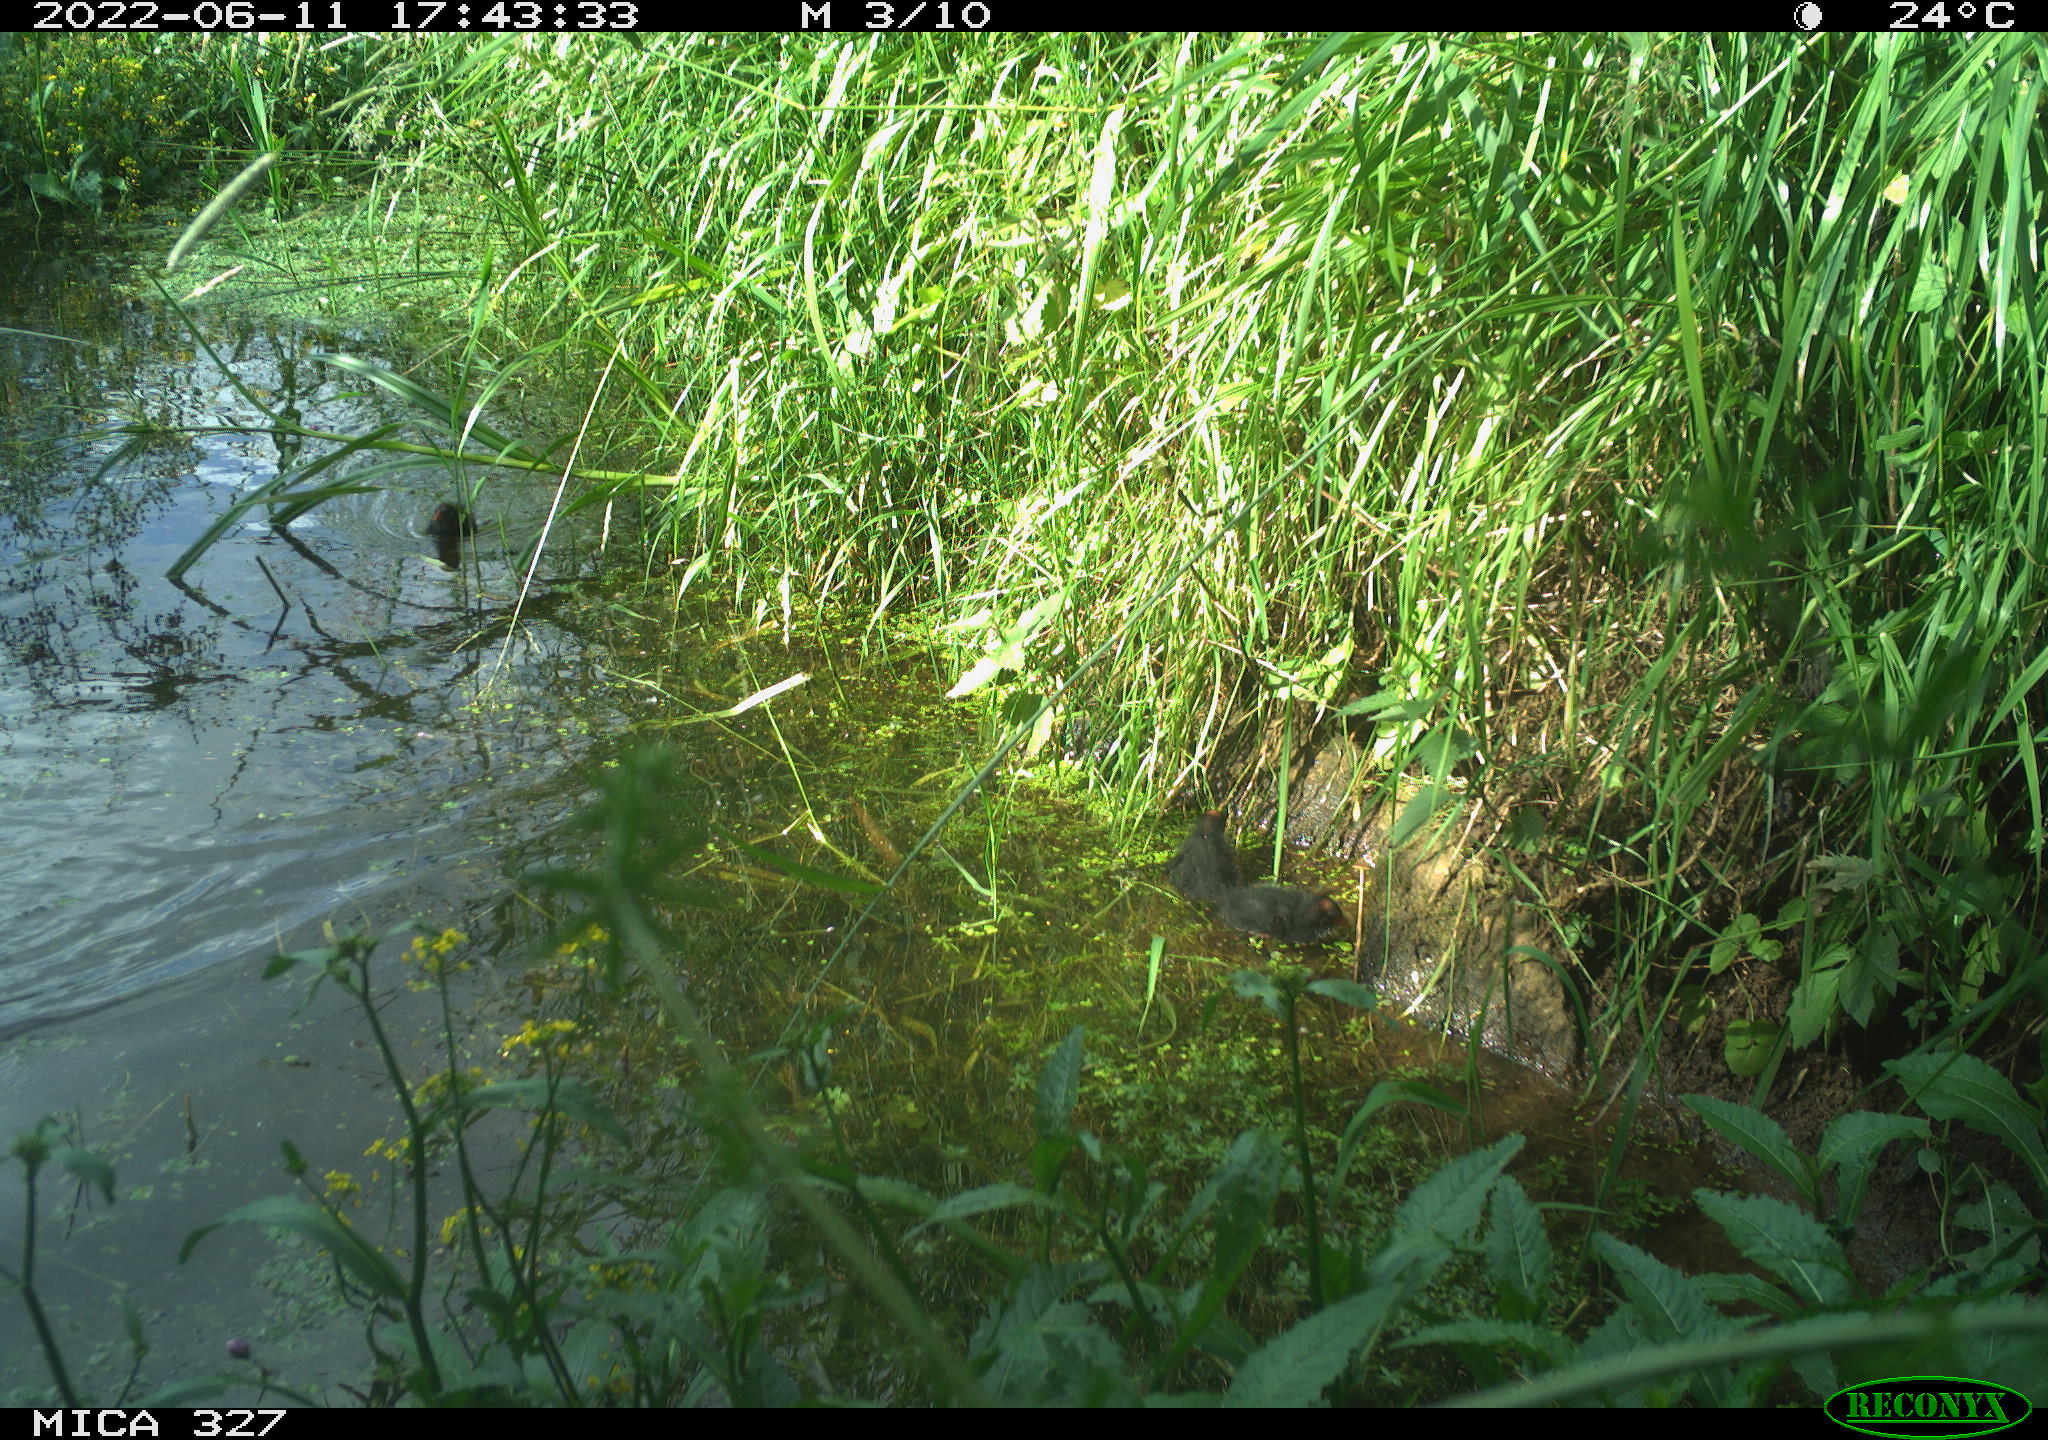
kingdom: Animalia
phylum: Chordata
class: Aves
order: Gruiformes
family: Rallidae
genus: Gallinula
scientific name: Gallinula chloropus
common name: Common moorhen
